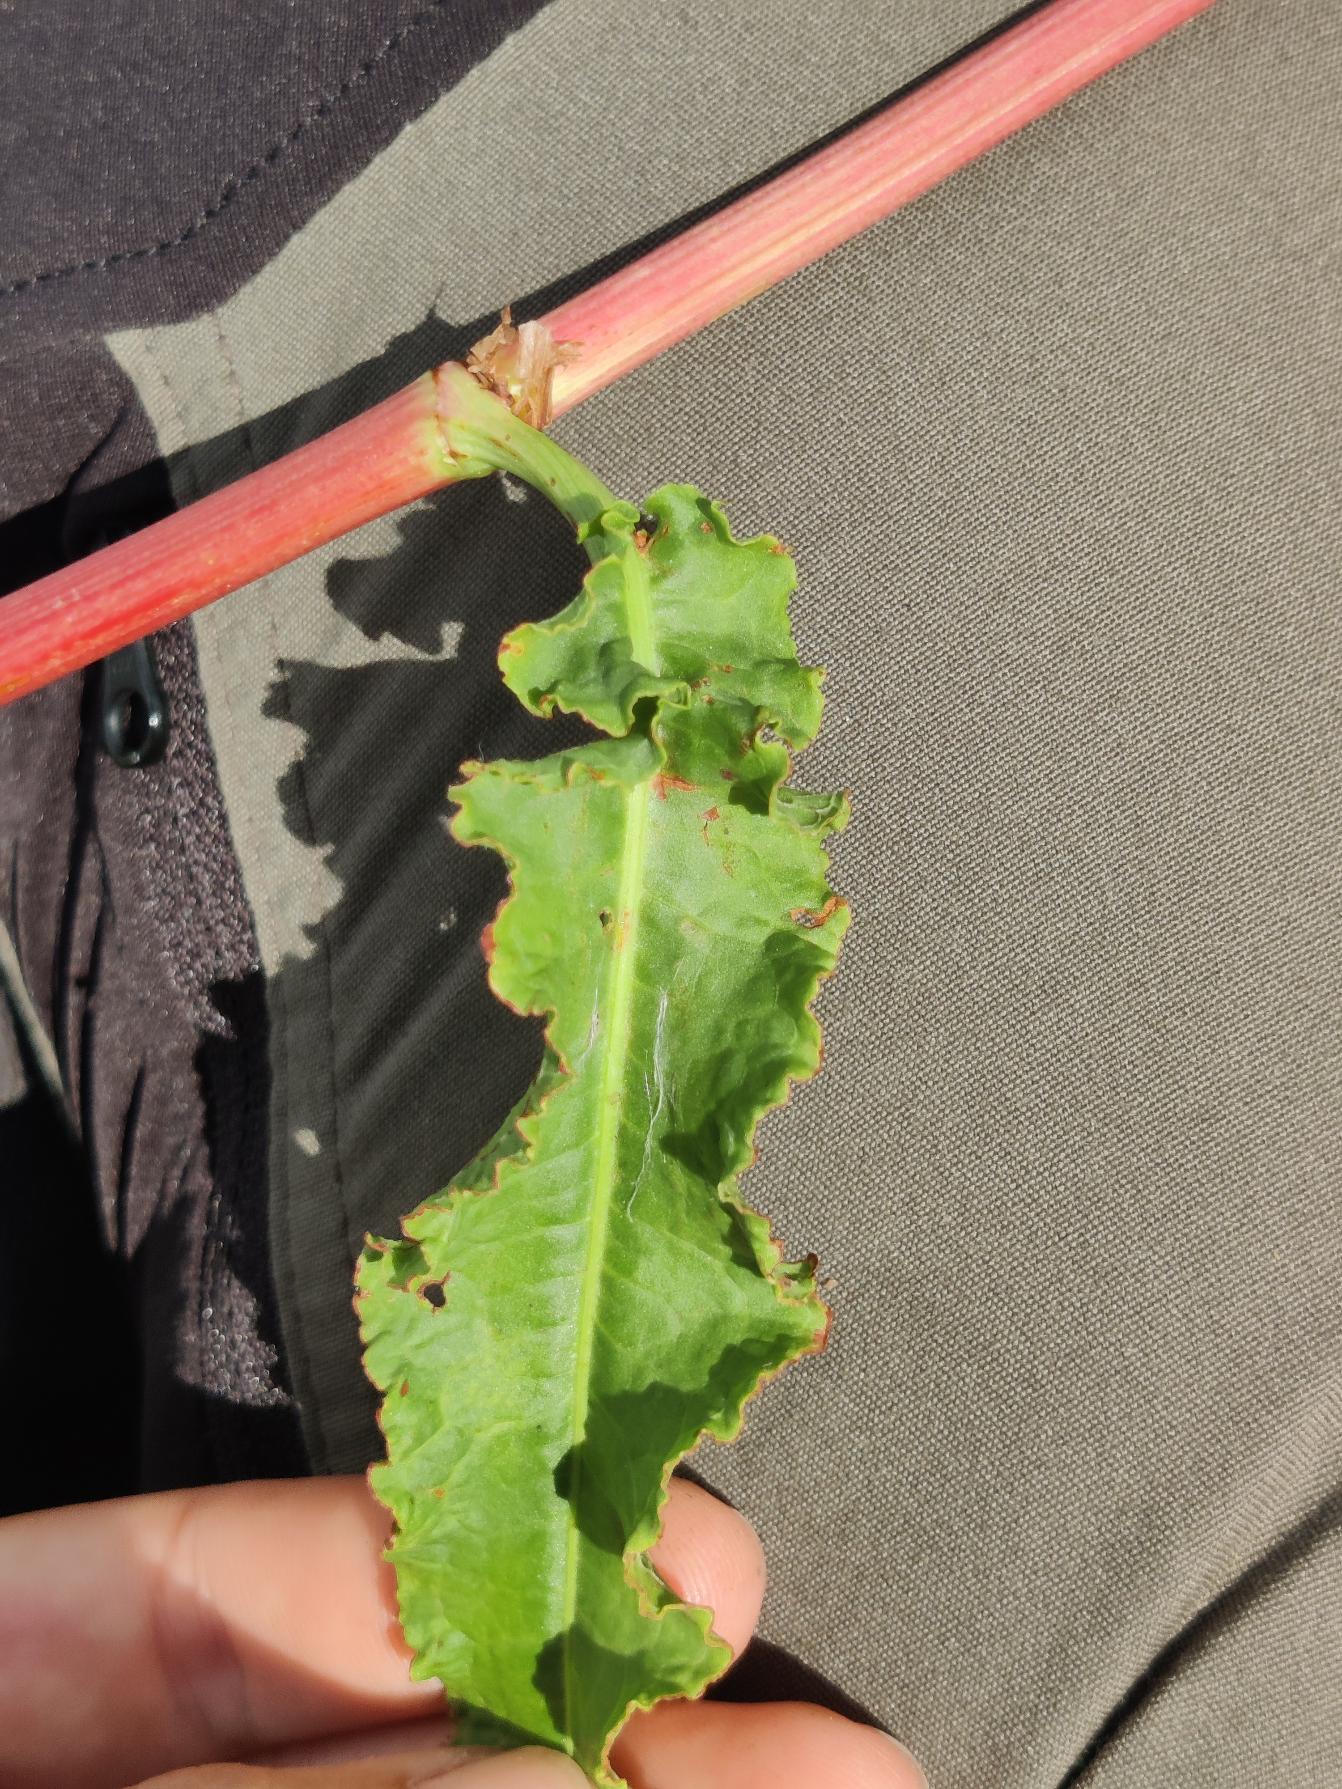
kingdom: Plantae
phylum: Tracheophyta
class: Magnoliopsida
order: Caryophyllales
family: Polygonaceae
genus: Rumex
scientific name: Rumex crispus
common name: Kruset skræppe
